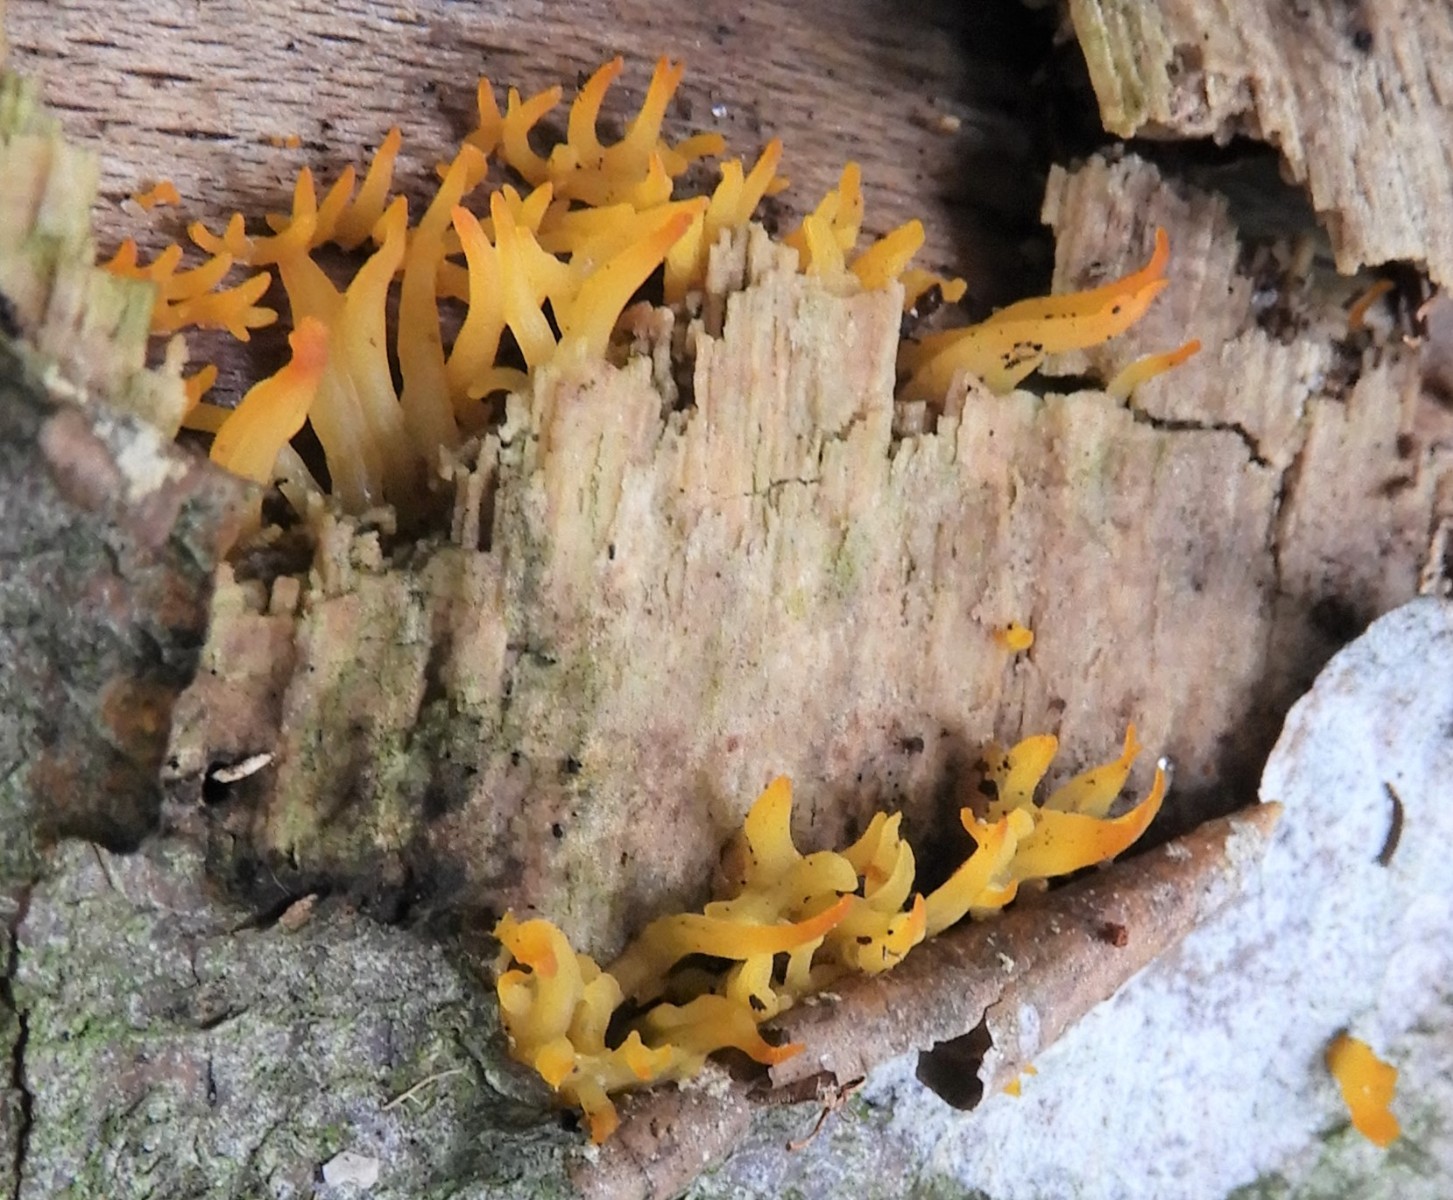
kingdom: Fungi
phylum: Basidiomycota
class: Dacrymycetes
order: Dacrymycetales
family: Dacrymycetaceae
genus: Calocera
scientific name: Calocera cornea
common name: liden guldgaffel
